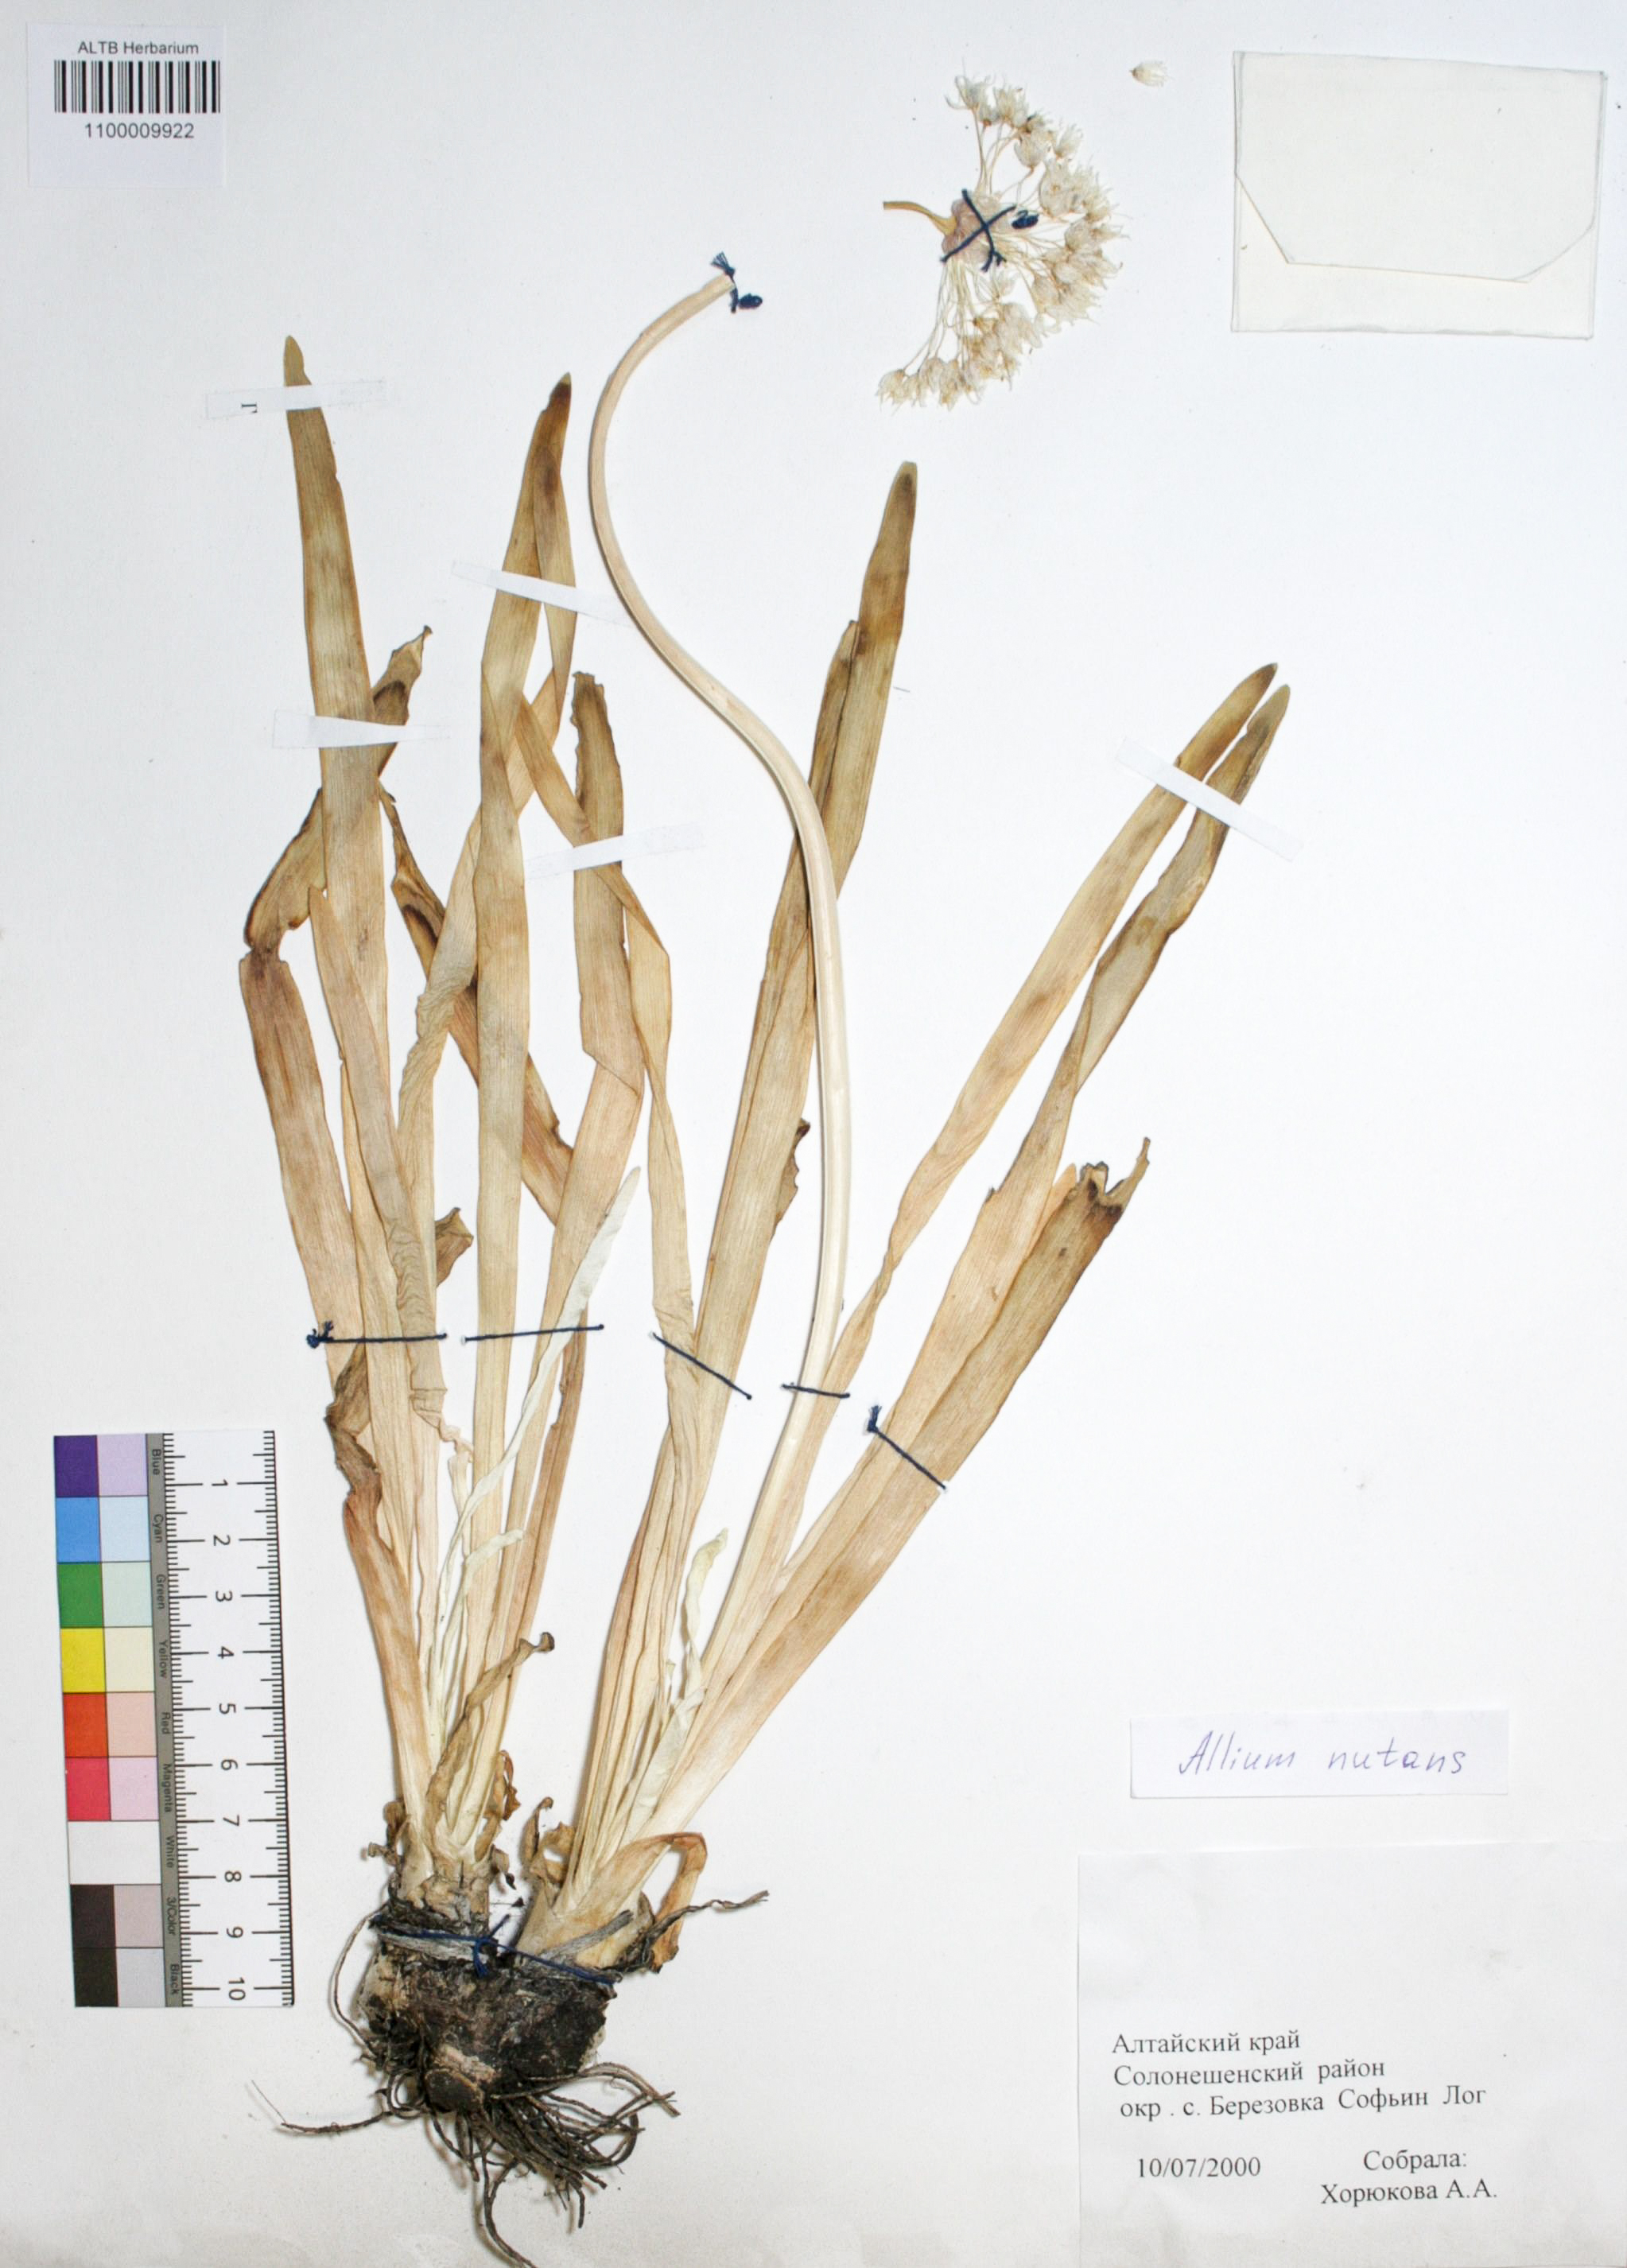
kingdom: Plantae
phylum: Tracheophyta
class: Liliopsida
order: Asparagales
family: Amaryllidaceae
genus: Allium
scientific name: Allium nutans
